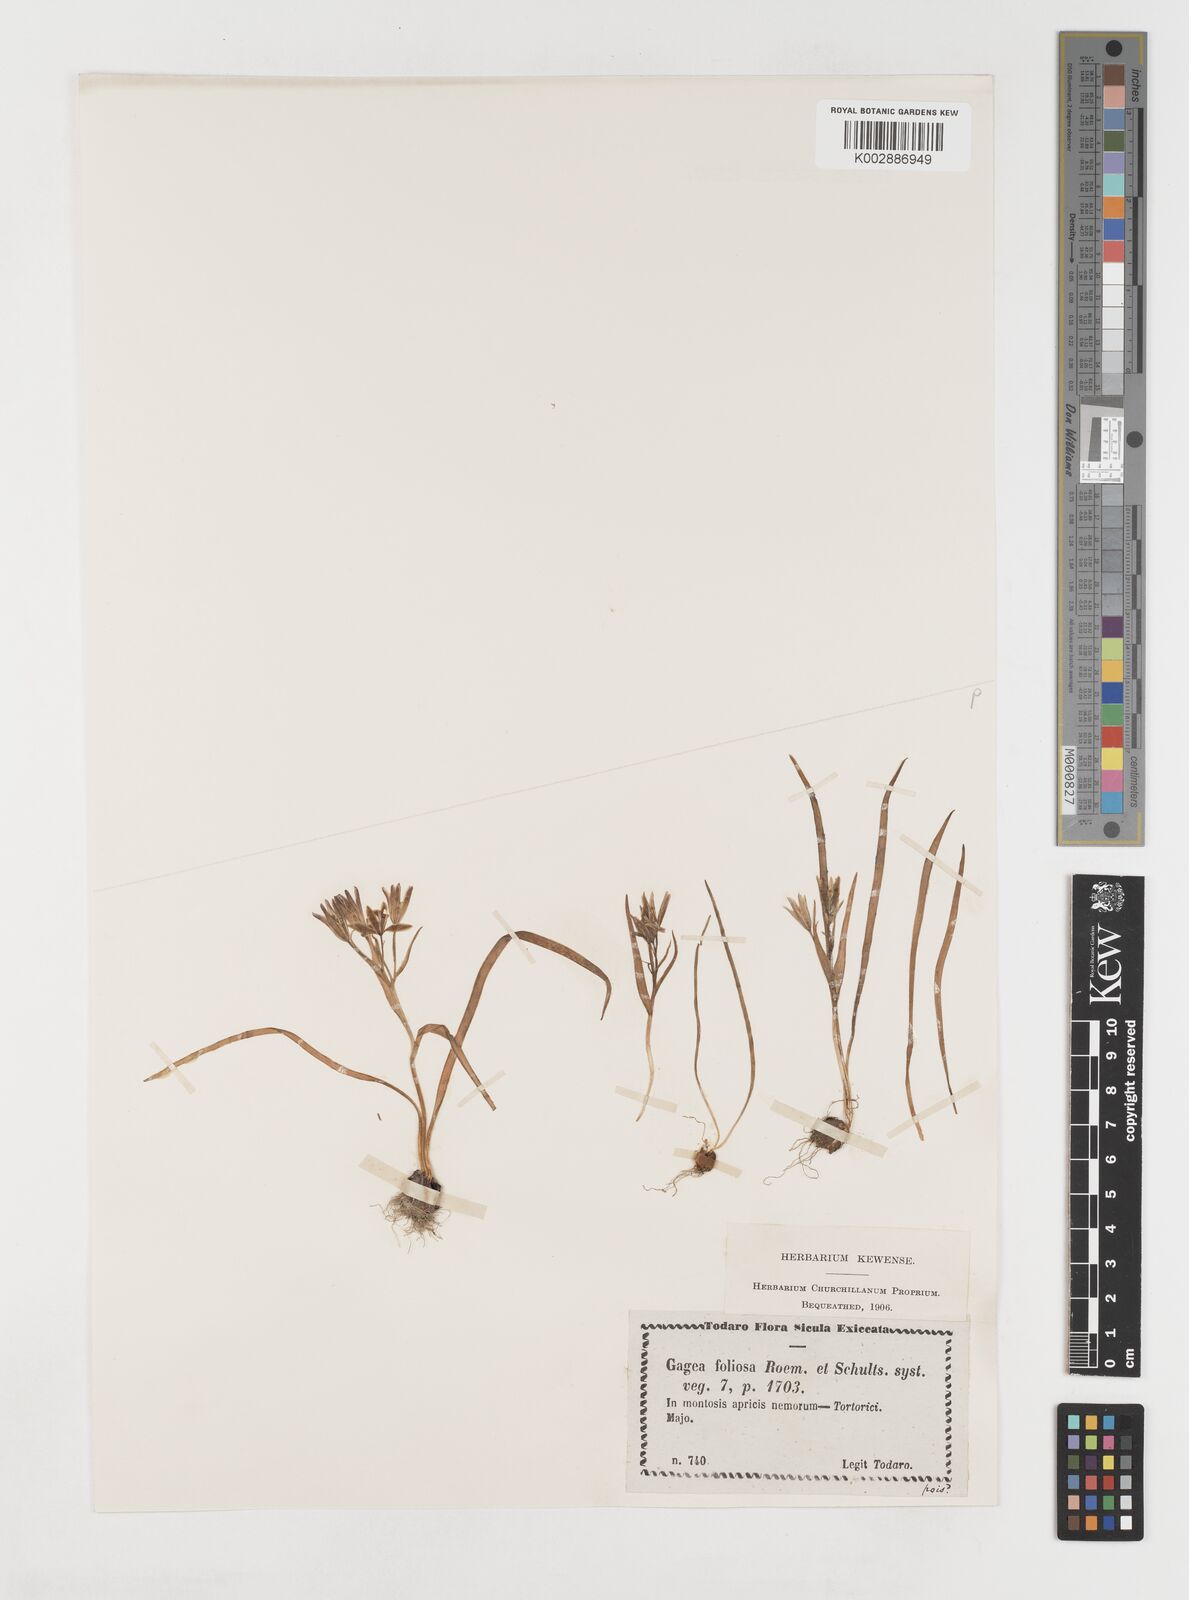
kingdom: Plantae
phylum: Tracheophyta
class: Liliopsida
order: Liliales
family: Liliaceae
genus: Gagea
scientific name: Gagea foliosa
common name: Leafy gagea
